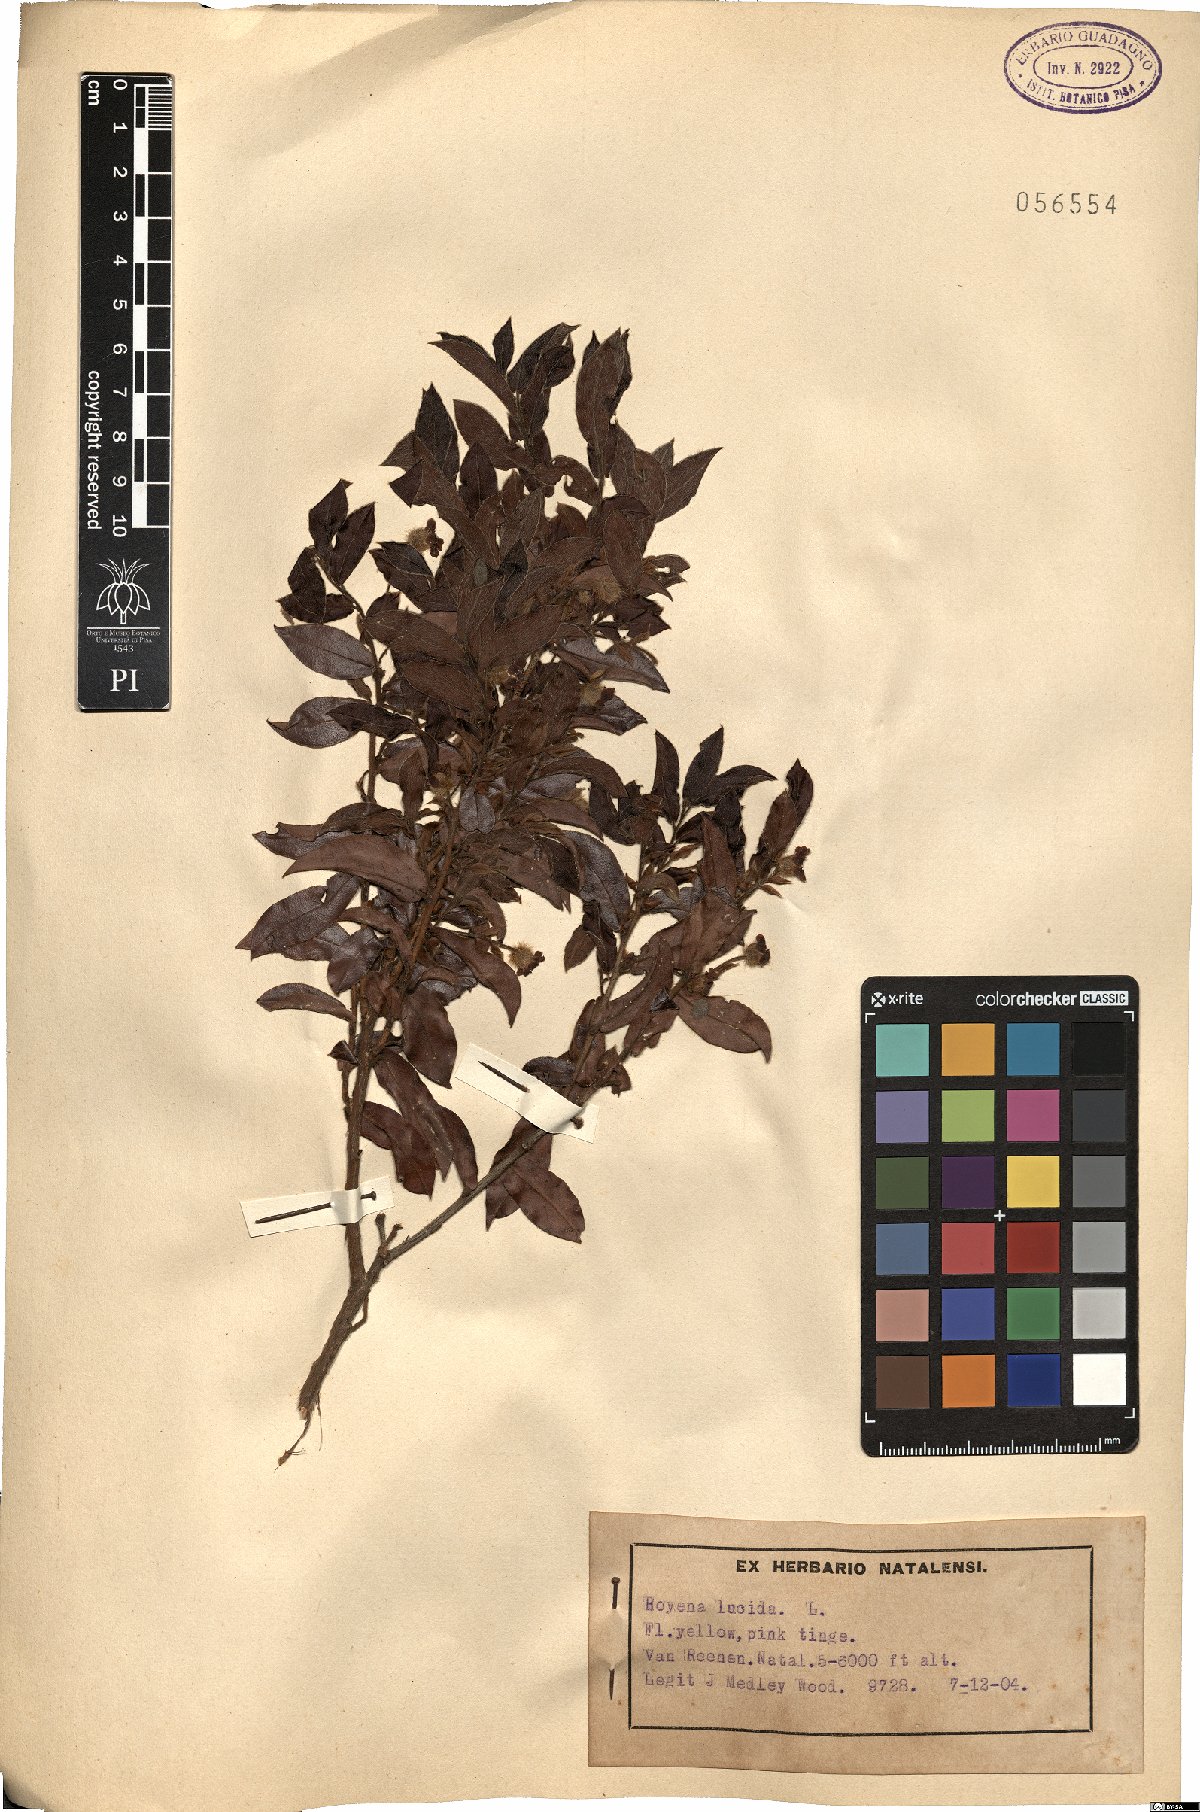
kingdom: Plantae
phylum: Tracheophyta
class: Magnoliopsida
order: Ericales
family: Ebenaceae
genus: Diospyros
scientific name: Diospyros whyteana
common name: Bladder-nut
